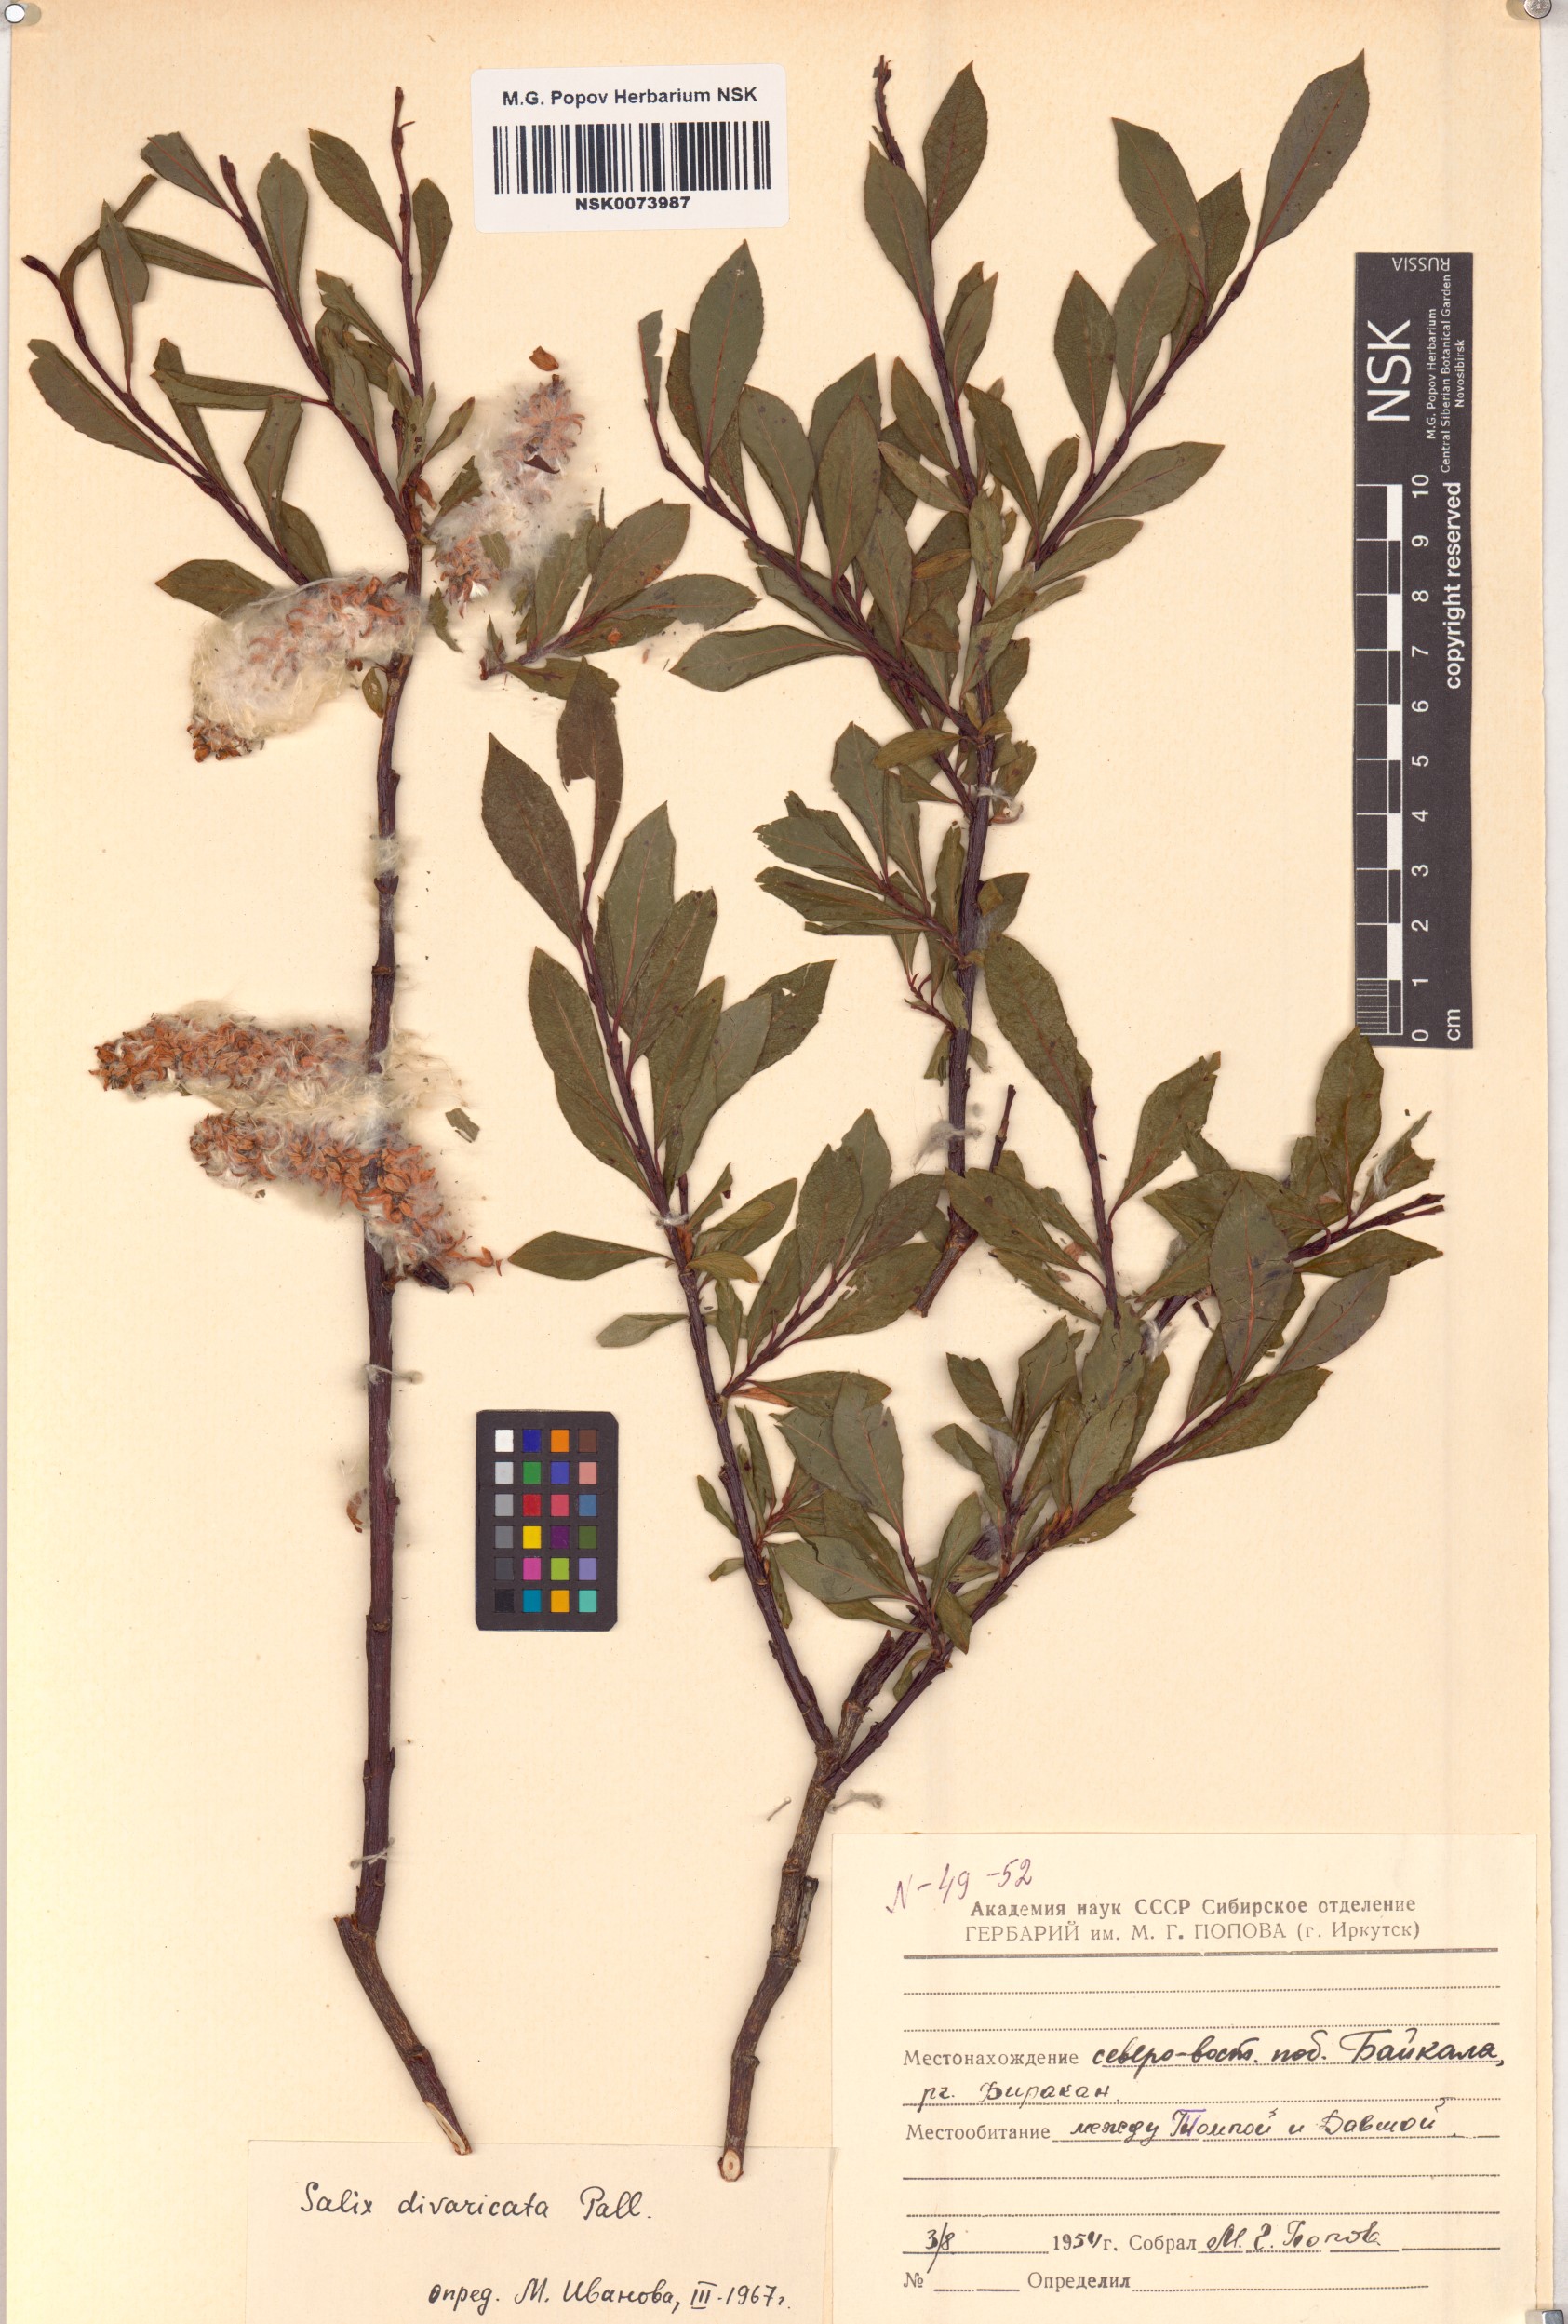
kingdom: Plantae
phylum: Tracheophyta
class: Magnoliopsida
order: Malpighiales
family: Salicaceae
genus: Salix
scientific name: Salix divaricata
